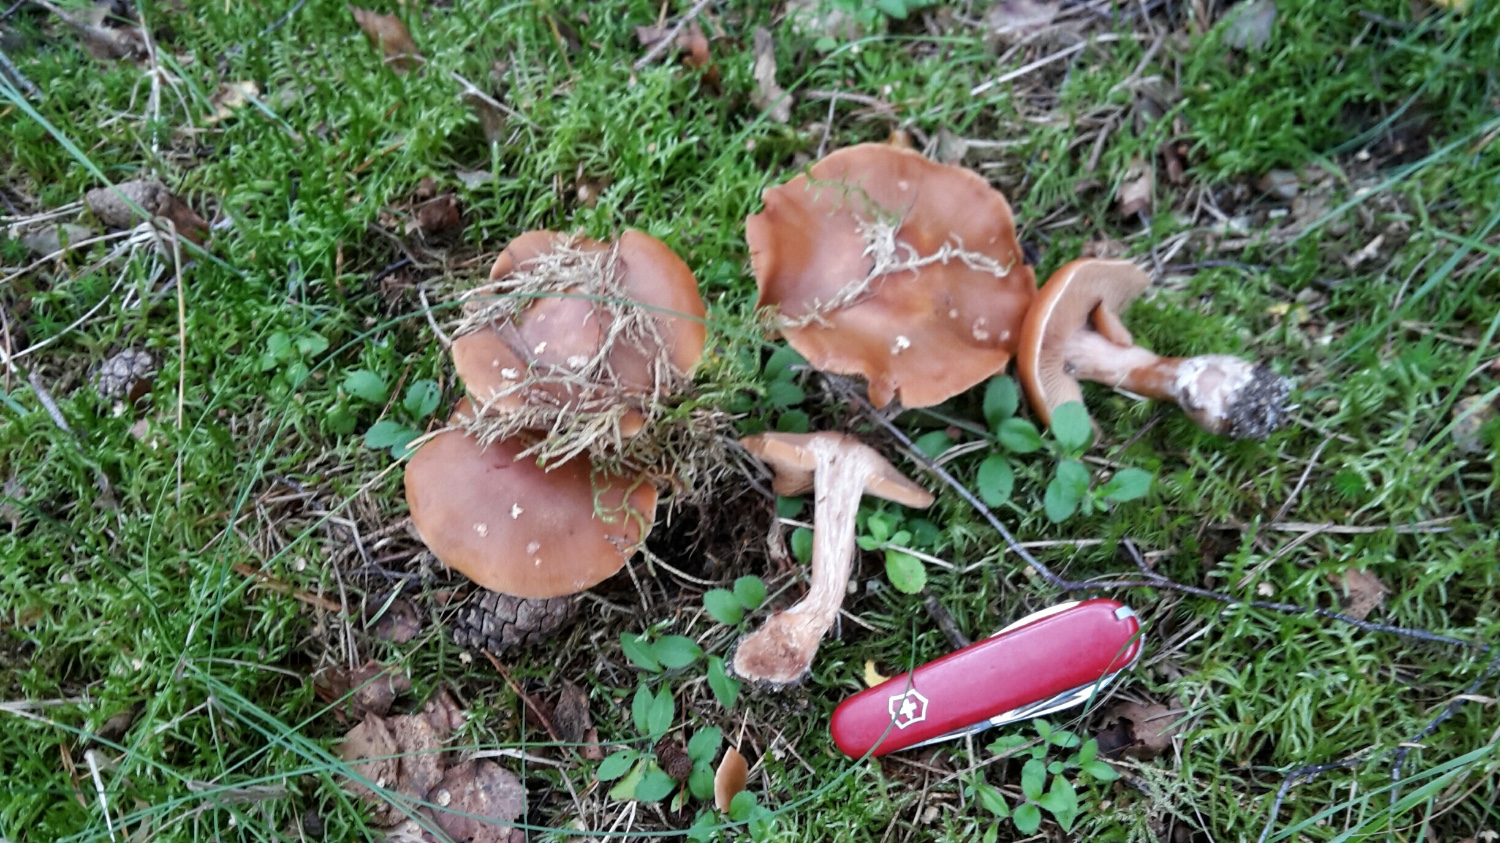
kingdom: Fungi
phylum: Basidiomycota
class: Agaricomycetes
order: Agaricales
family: Cortinariaceae
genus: Cortinarius
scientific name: Cortinarius armeniacus
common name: abrikos-slørhat
